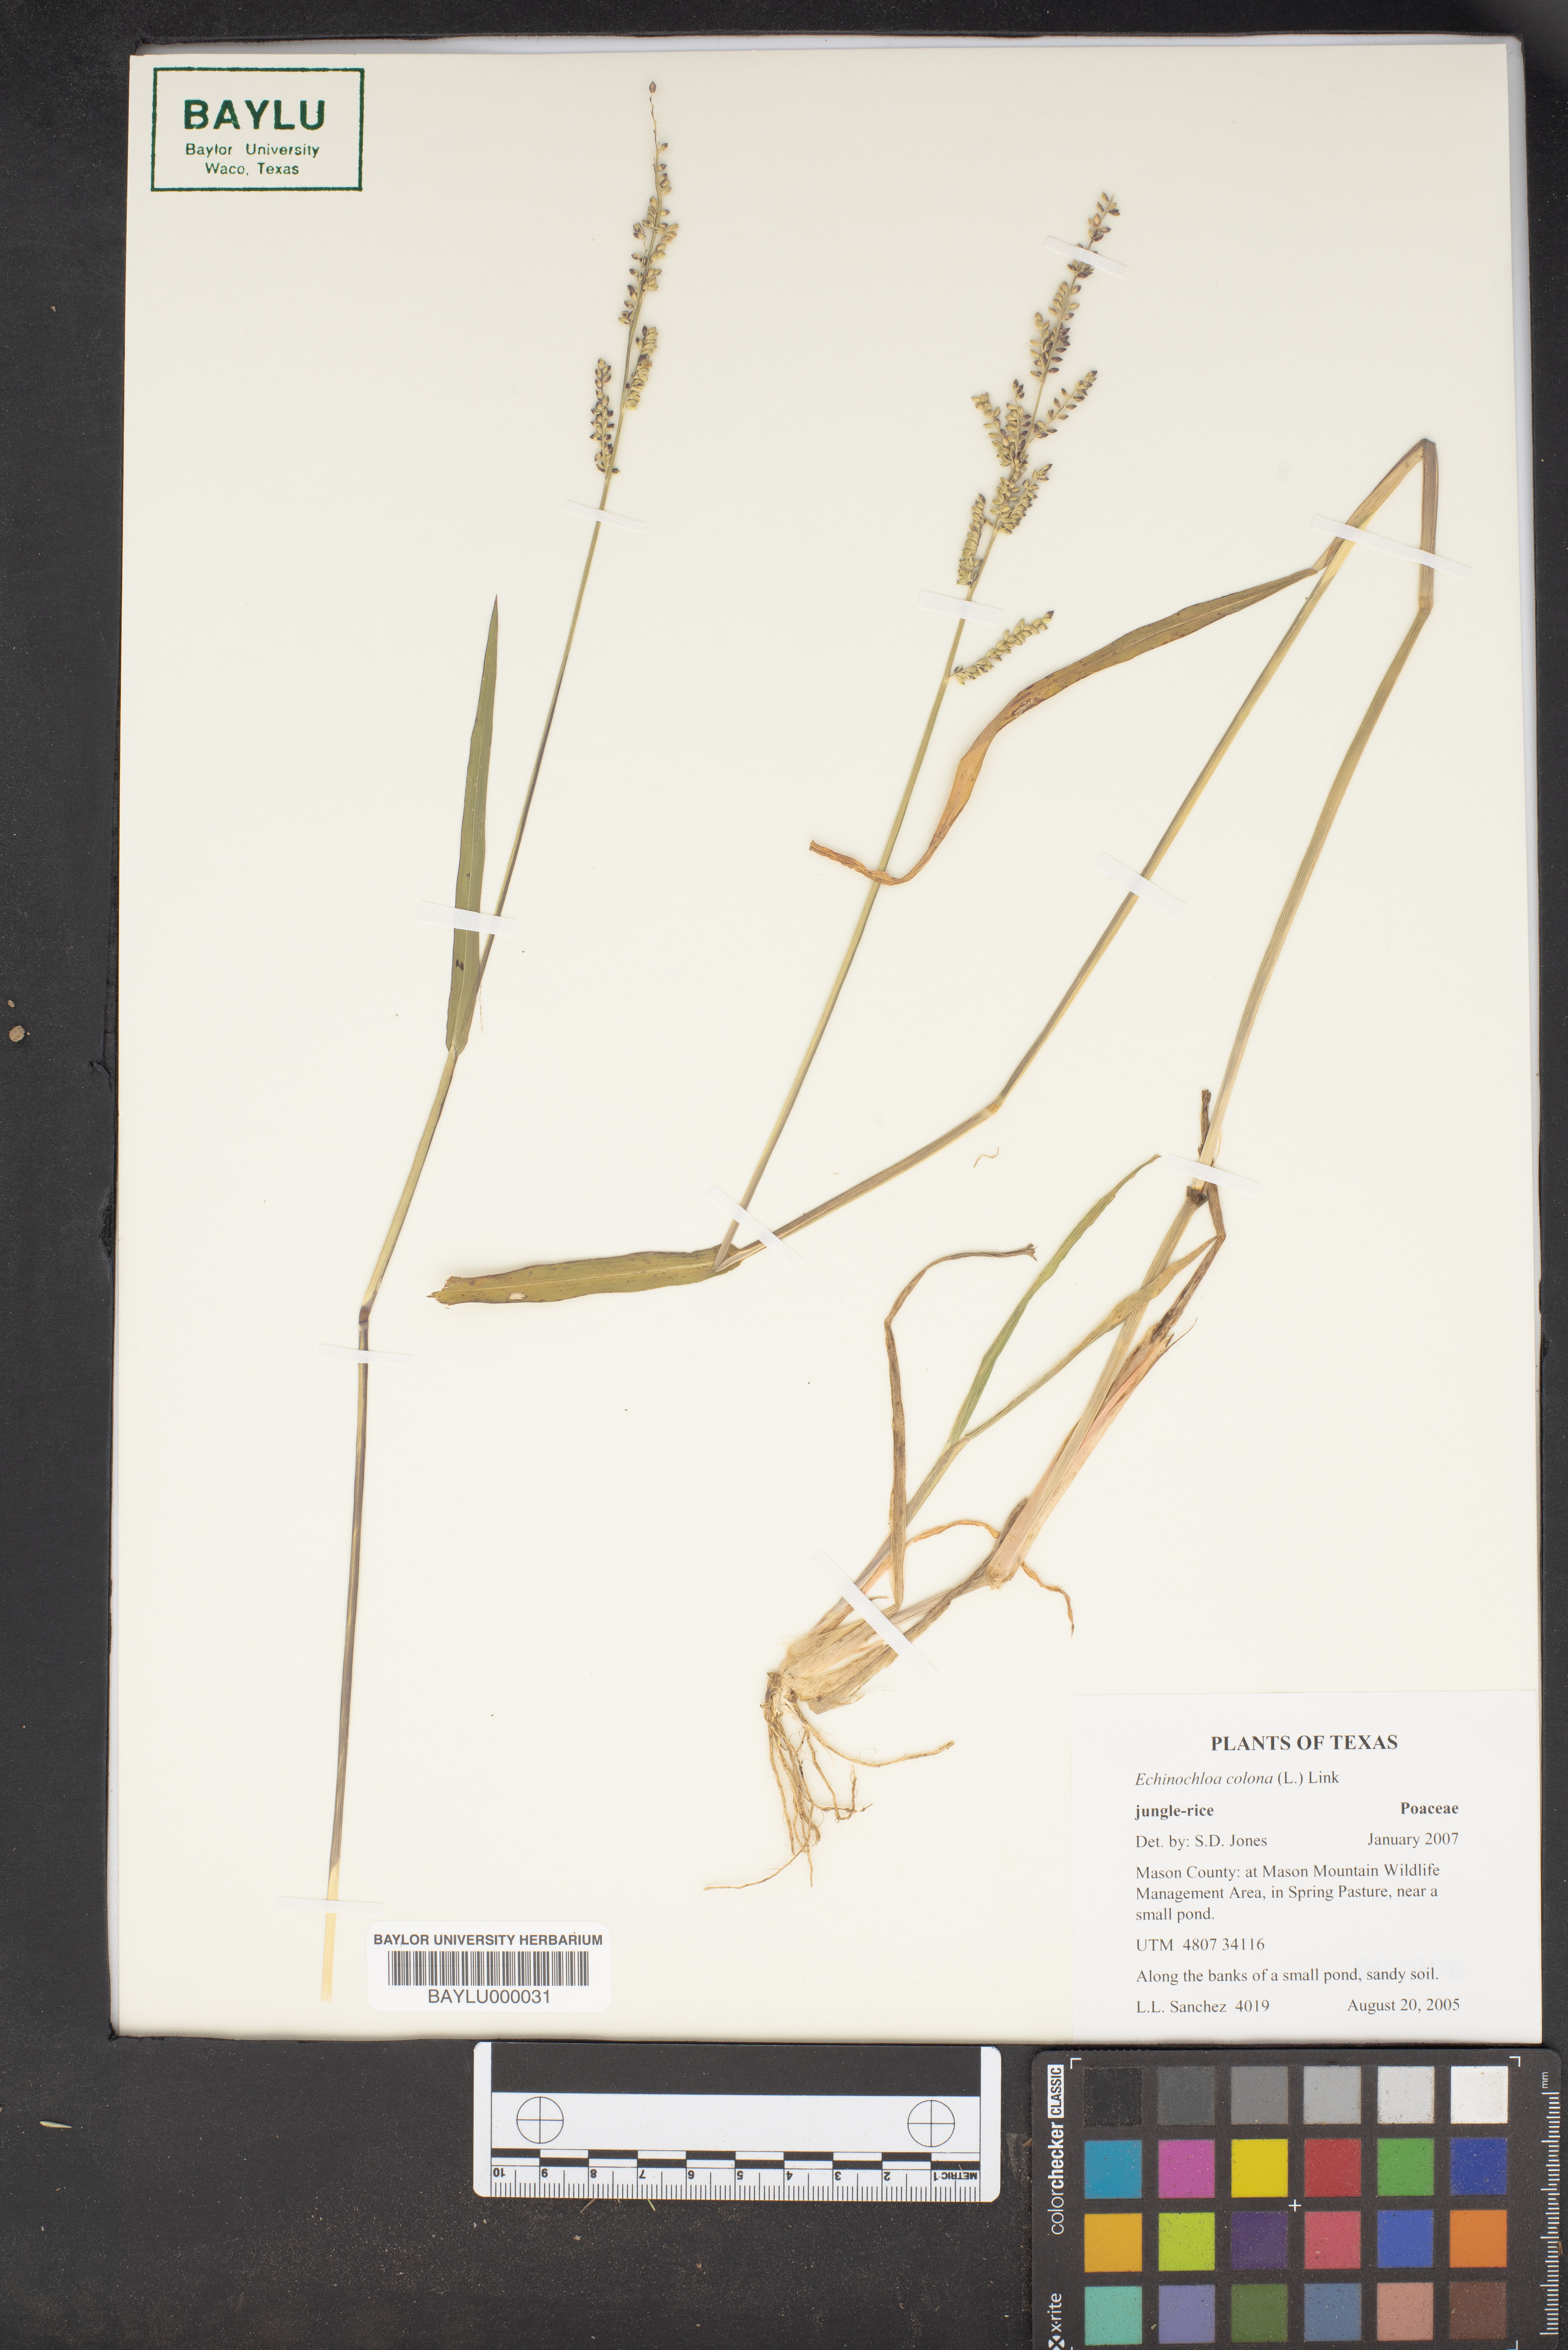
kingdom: Plantae
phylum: Tracheophyta
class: Liliopsida
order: Poales
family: Poaceae
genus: Echinochloa
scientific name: Echinochloa colonum
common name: Jungle rice
